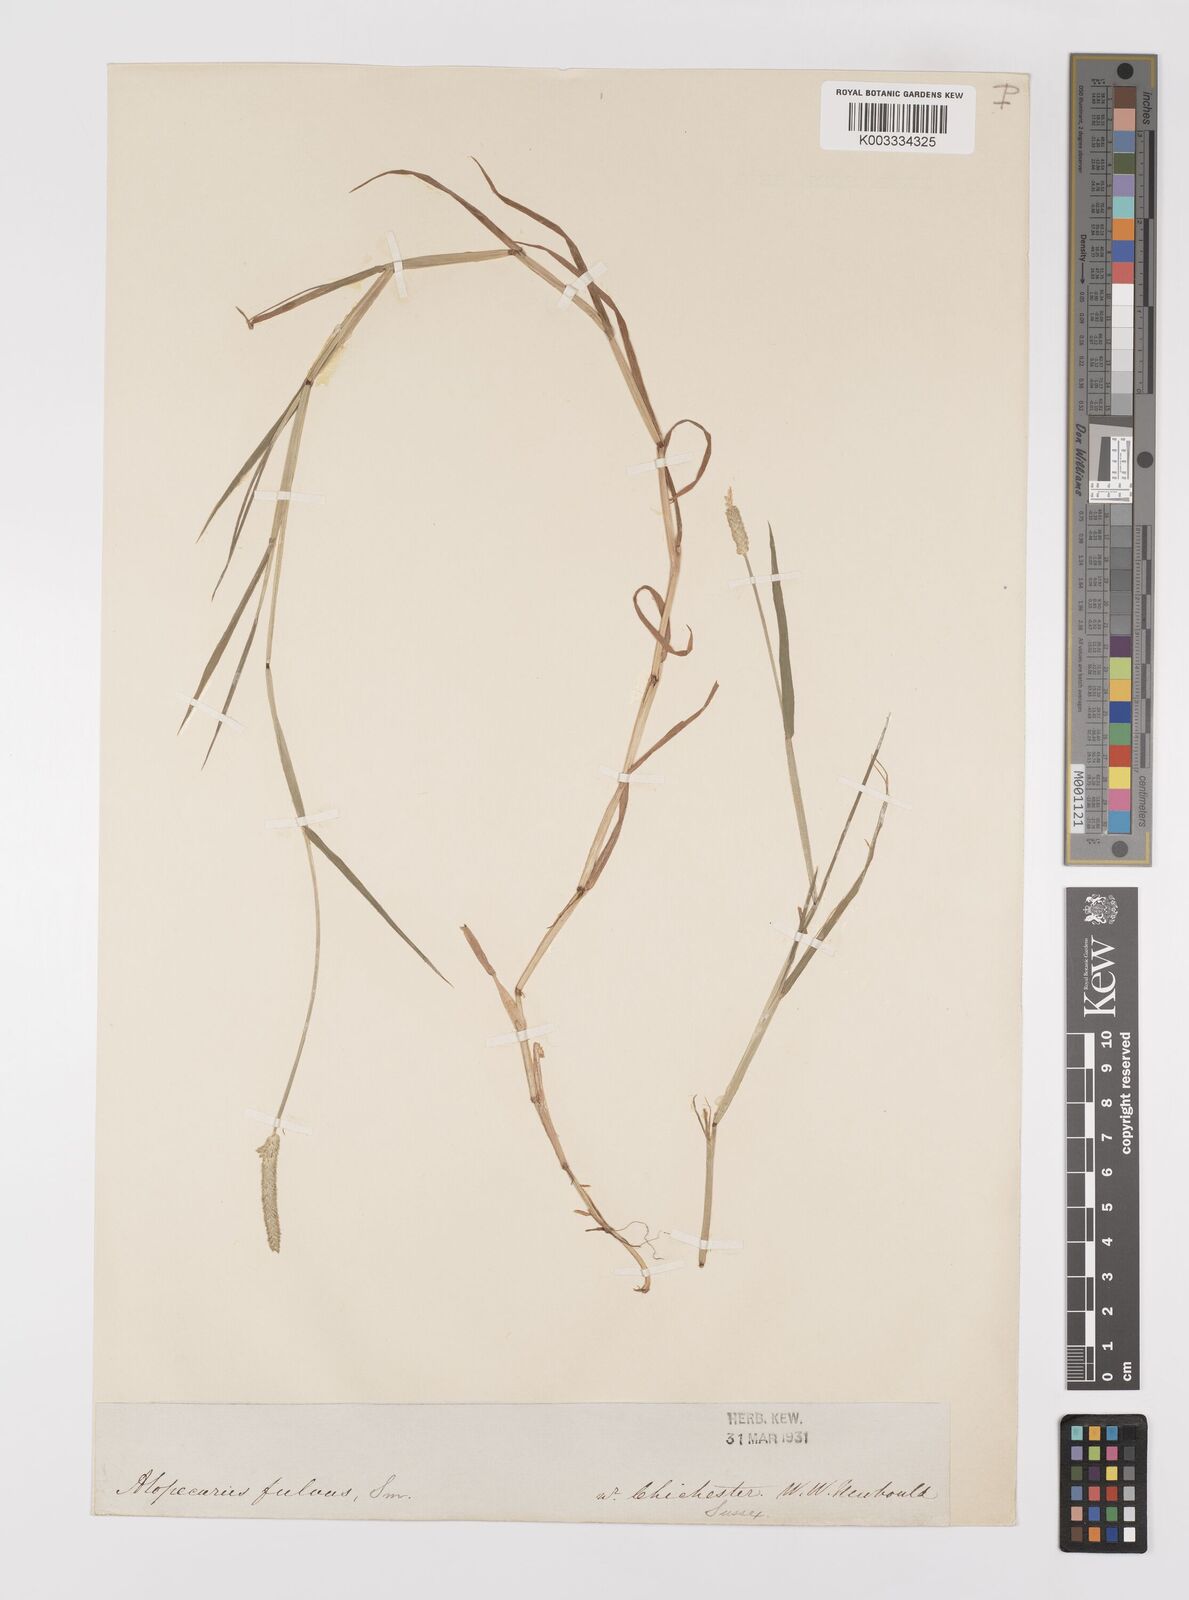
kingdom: Plantae
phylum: Tracheophyta
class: Liliopsida
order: Poales
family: Poaceae
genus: Alopecurus
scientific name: Alopecurus aequalis
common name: Orange foxtail
